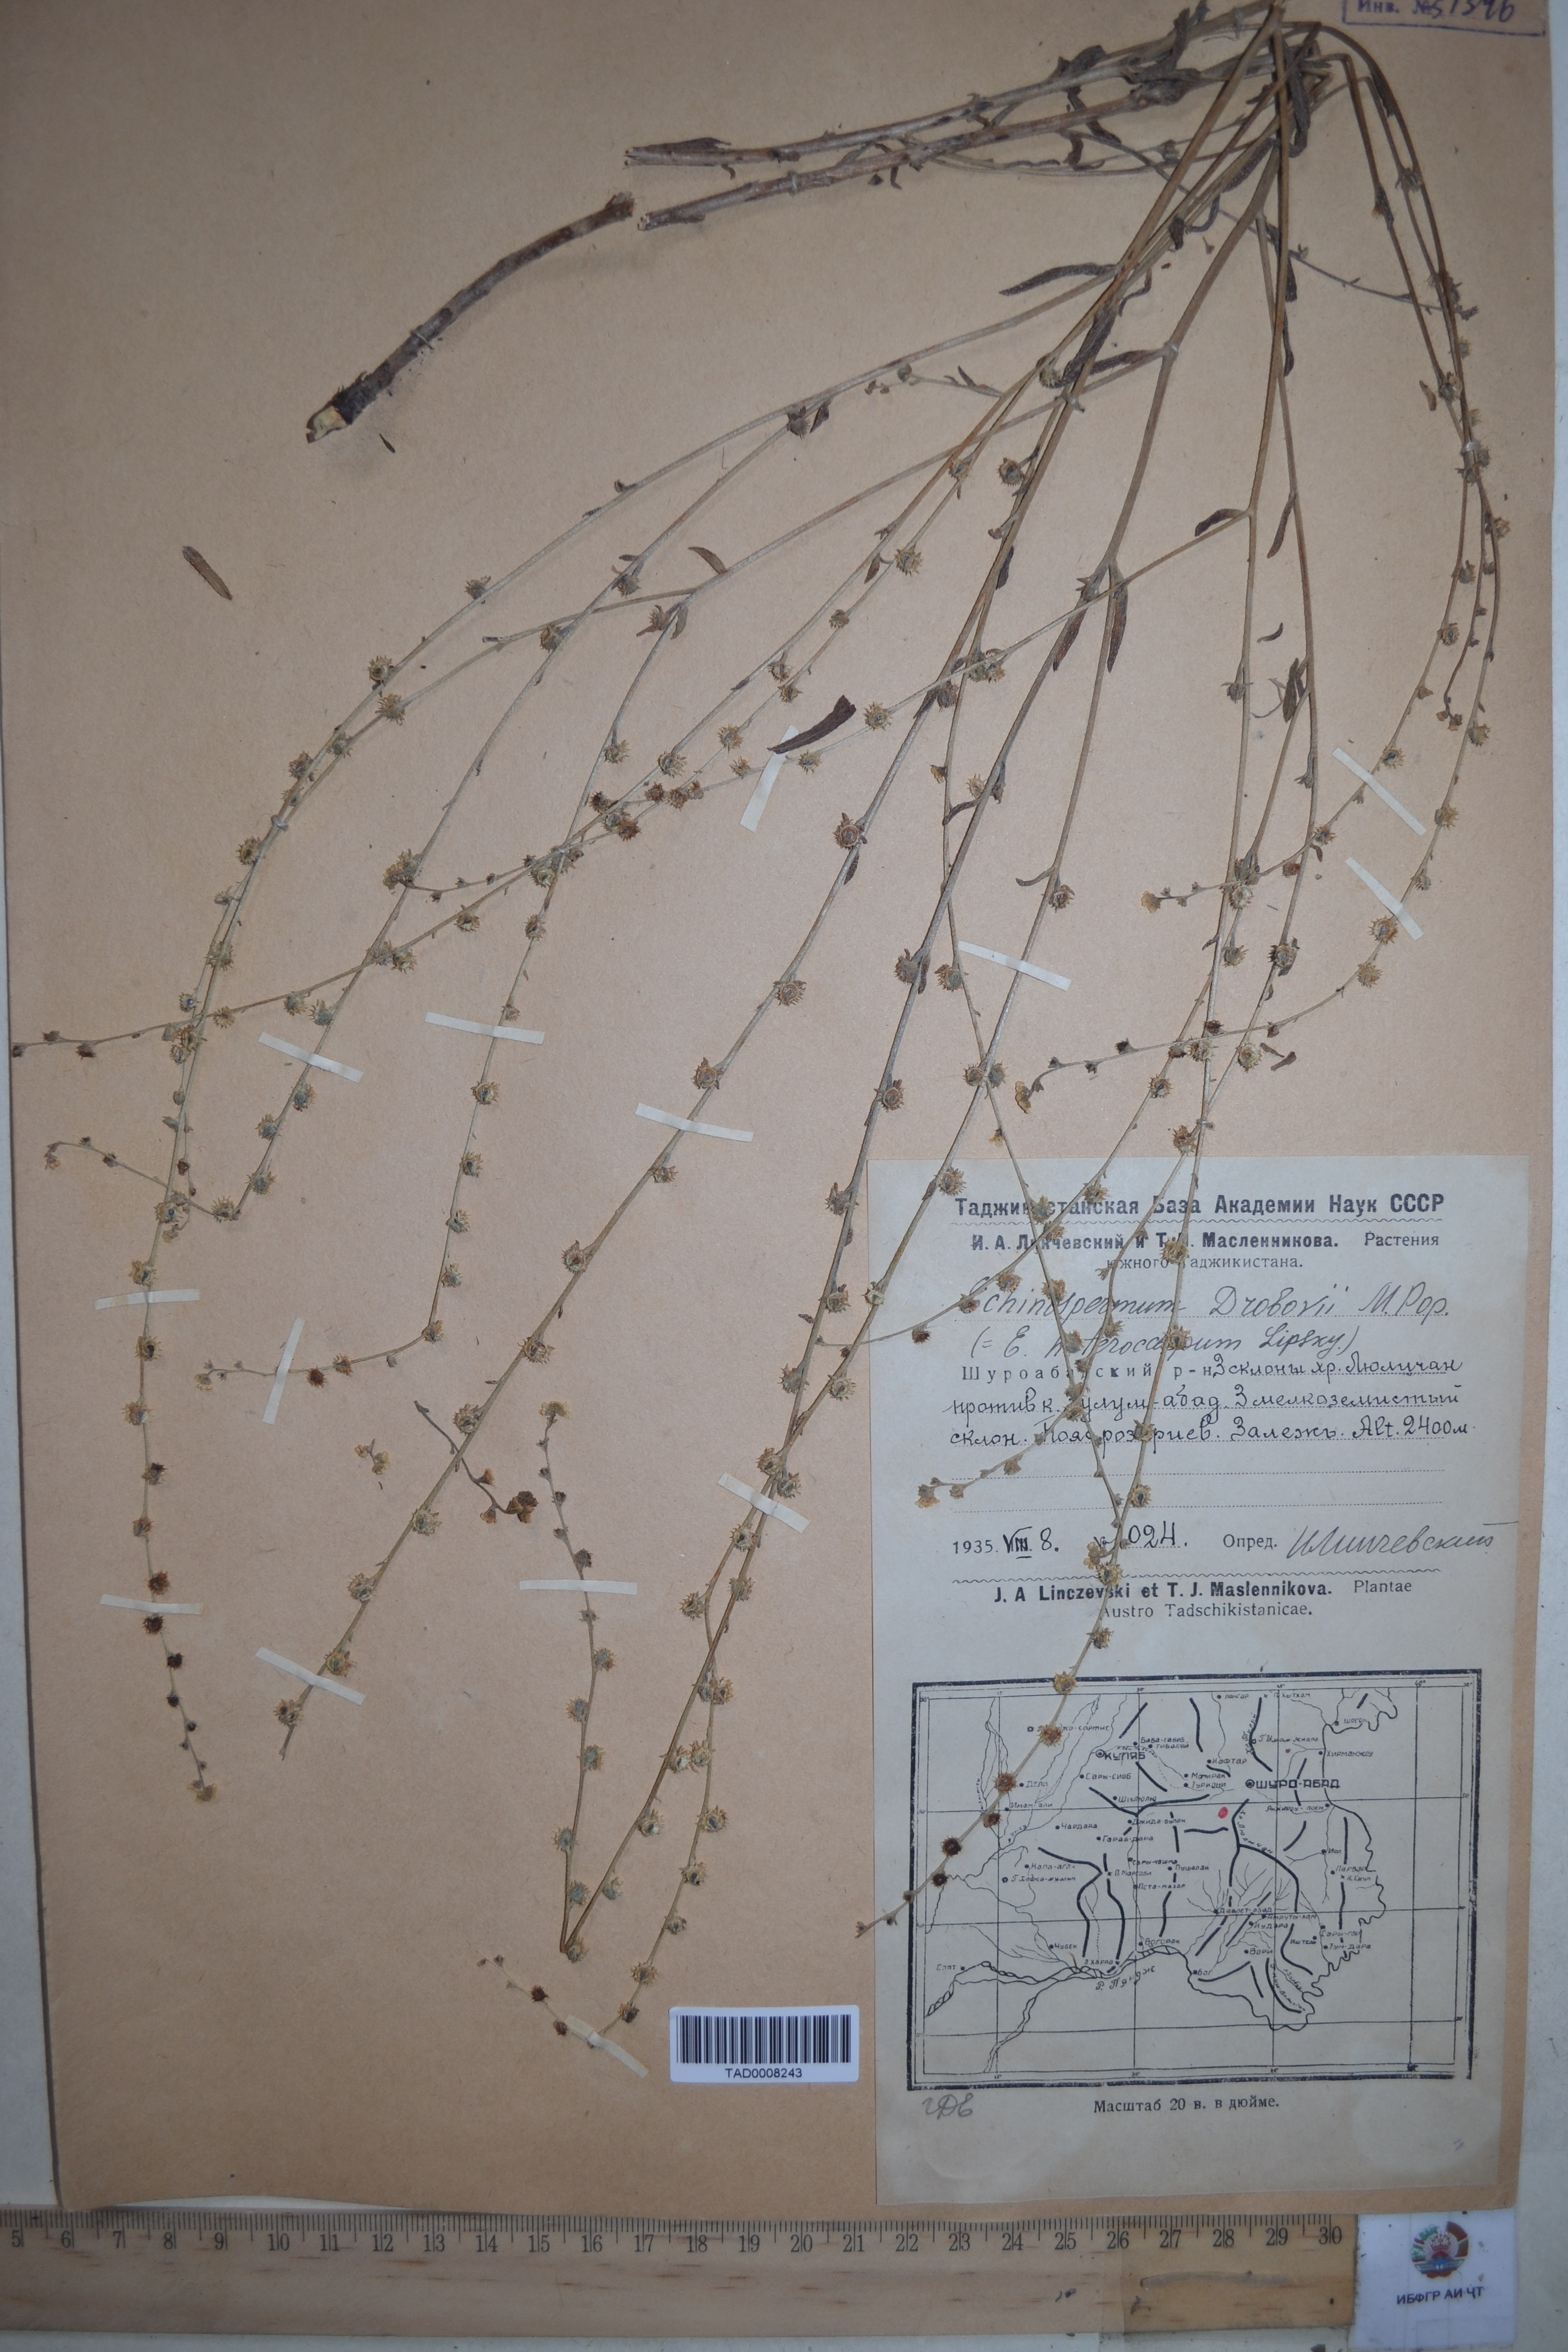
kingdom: Plantae
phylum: Tracheophyta
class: Magnoliopsida
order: Boraginales
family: Boraginaceae
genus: Rochelia
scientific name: Rochelia drobovii
